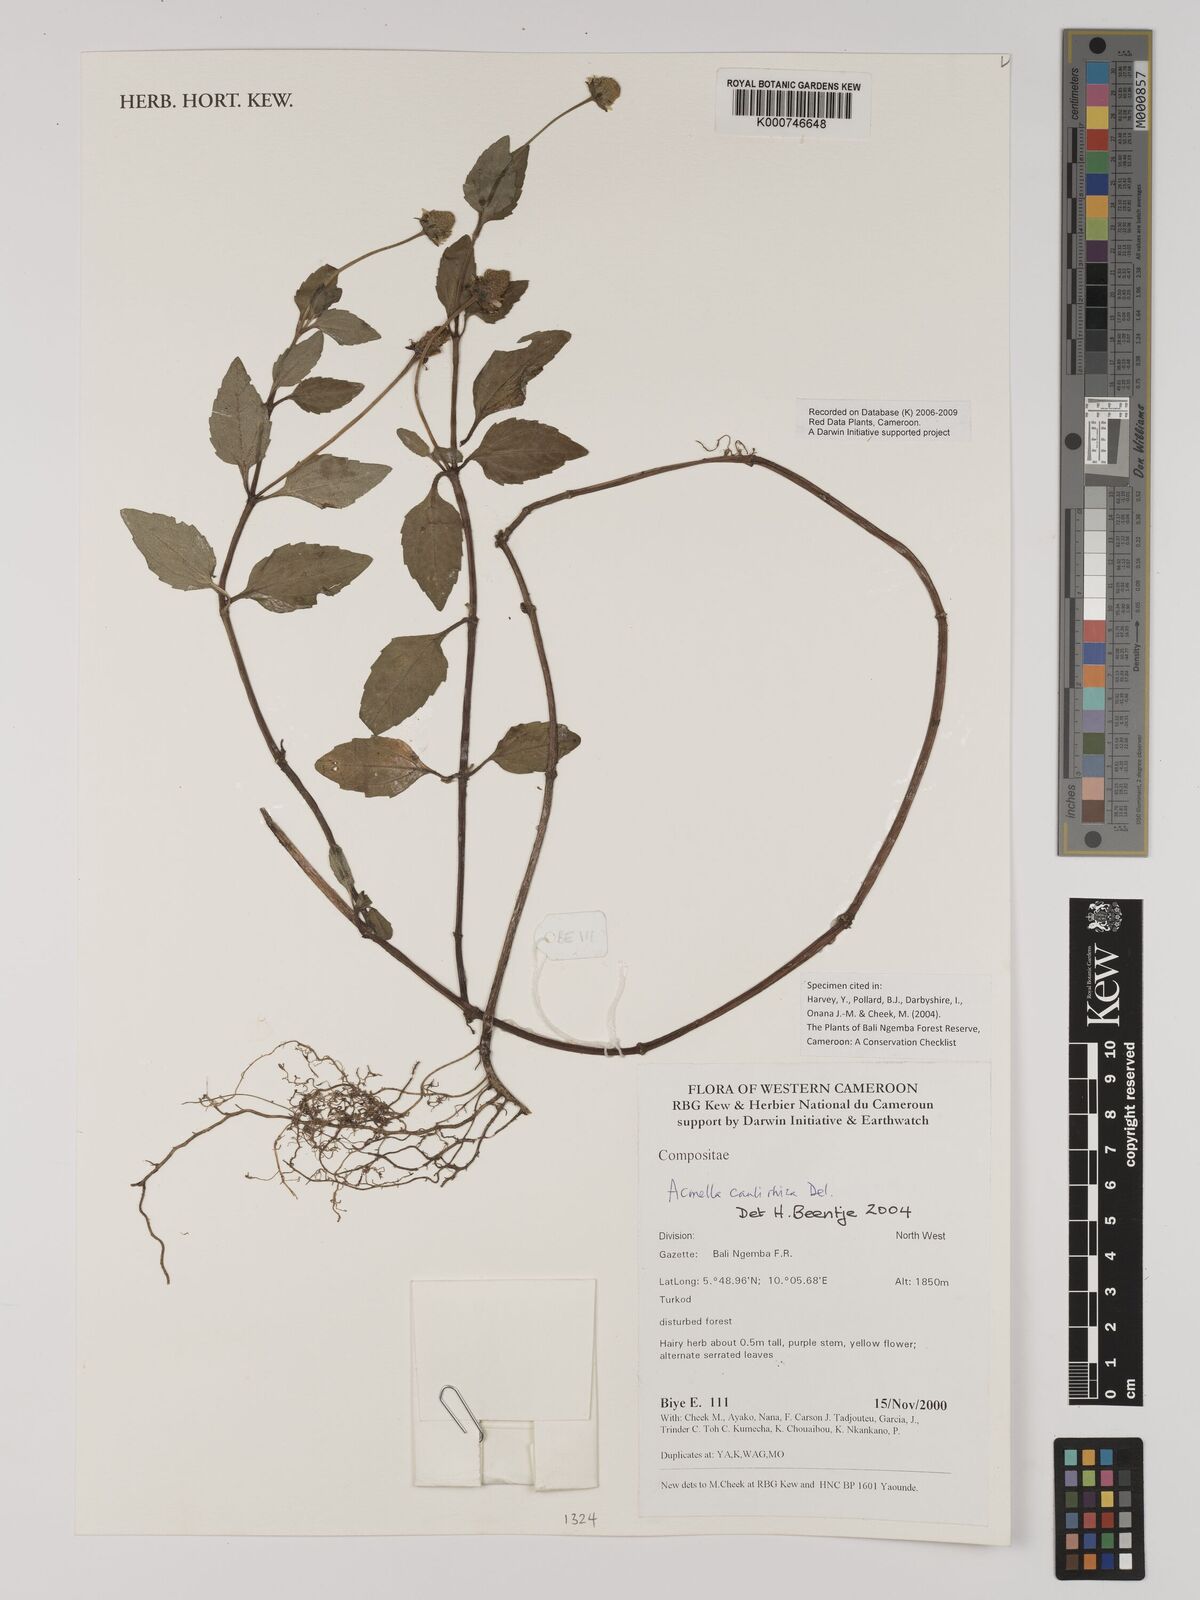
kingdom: Plantae
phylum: Tracheophyta
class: Magnoliopsida
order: Asterales
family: Asteraceae
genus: Acmella
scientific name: Acmella caulirhiza
